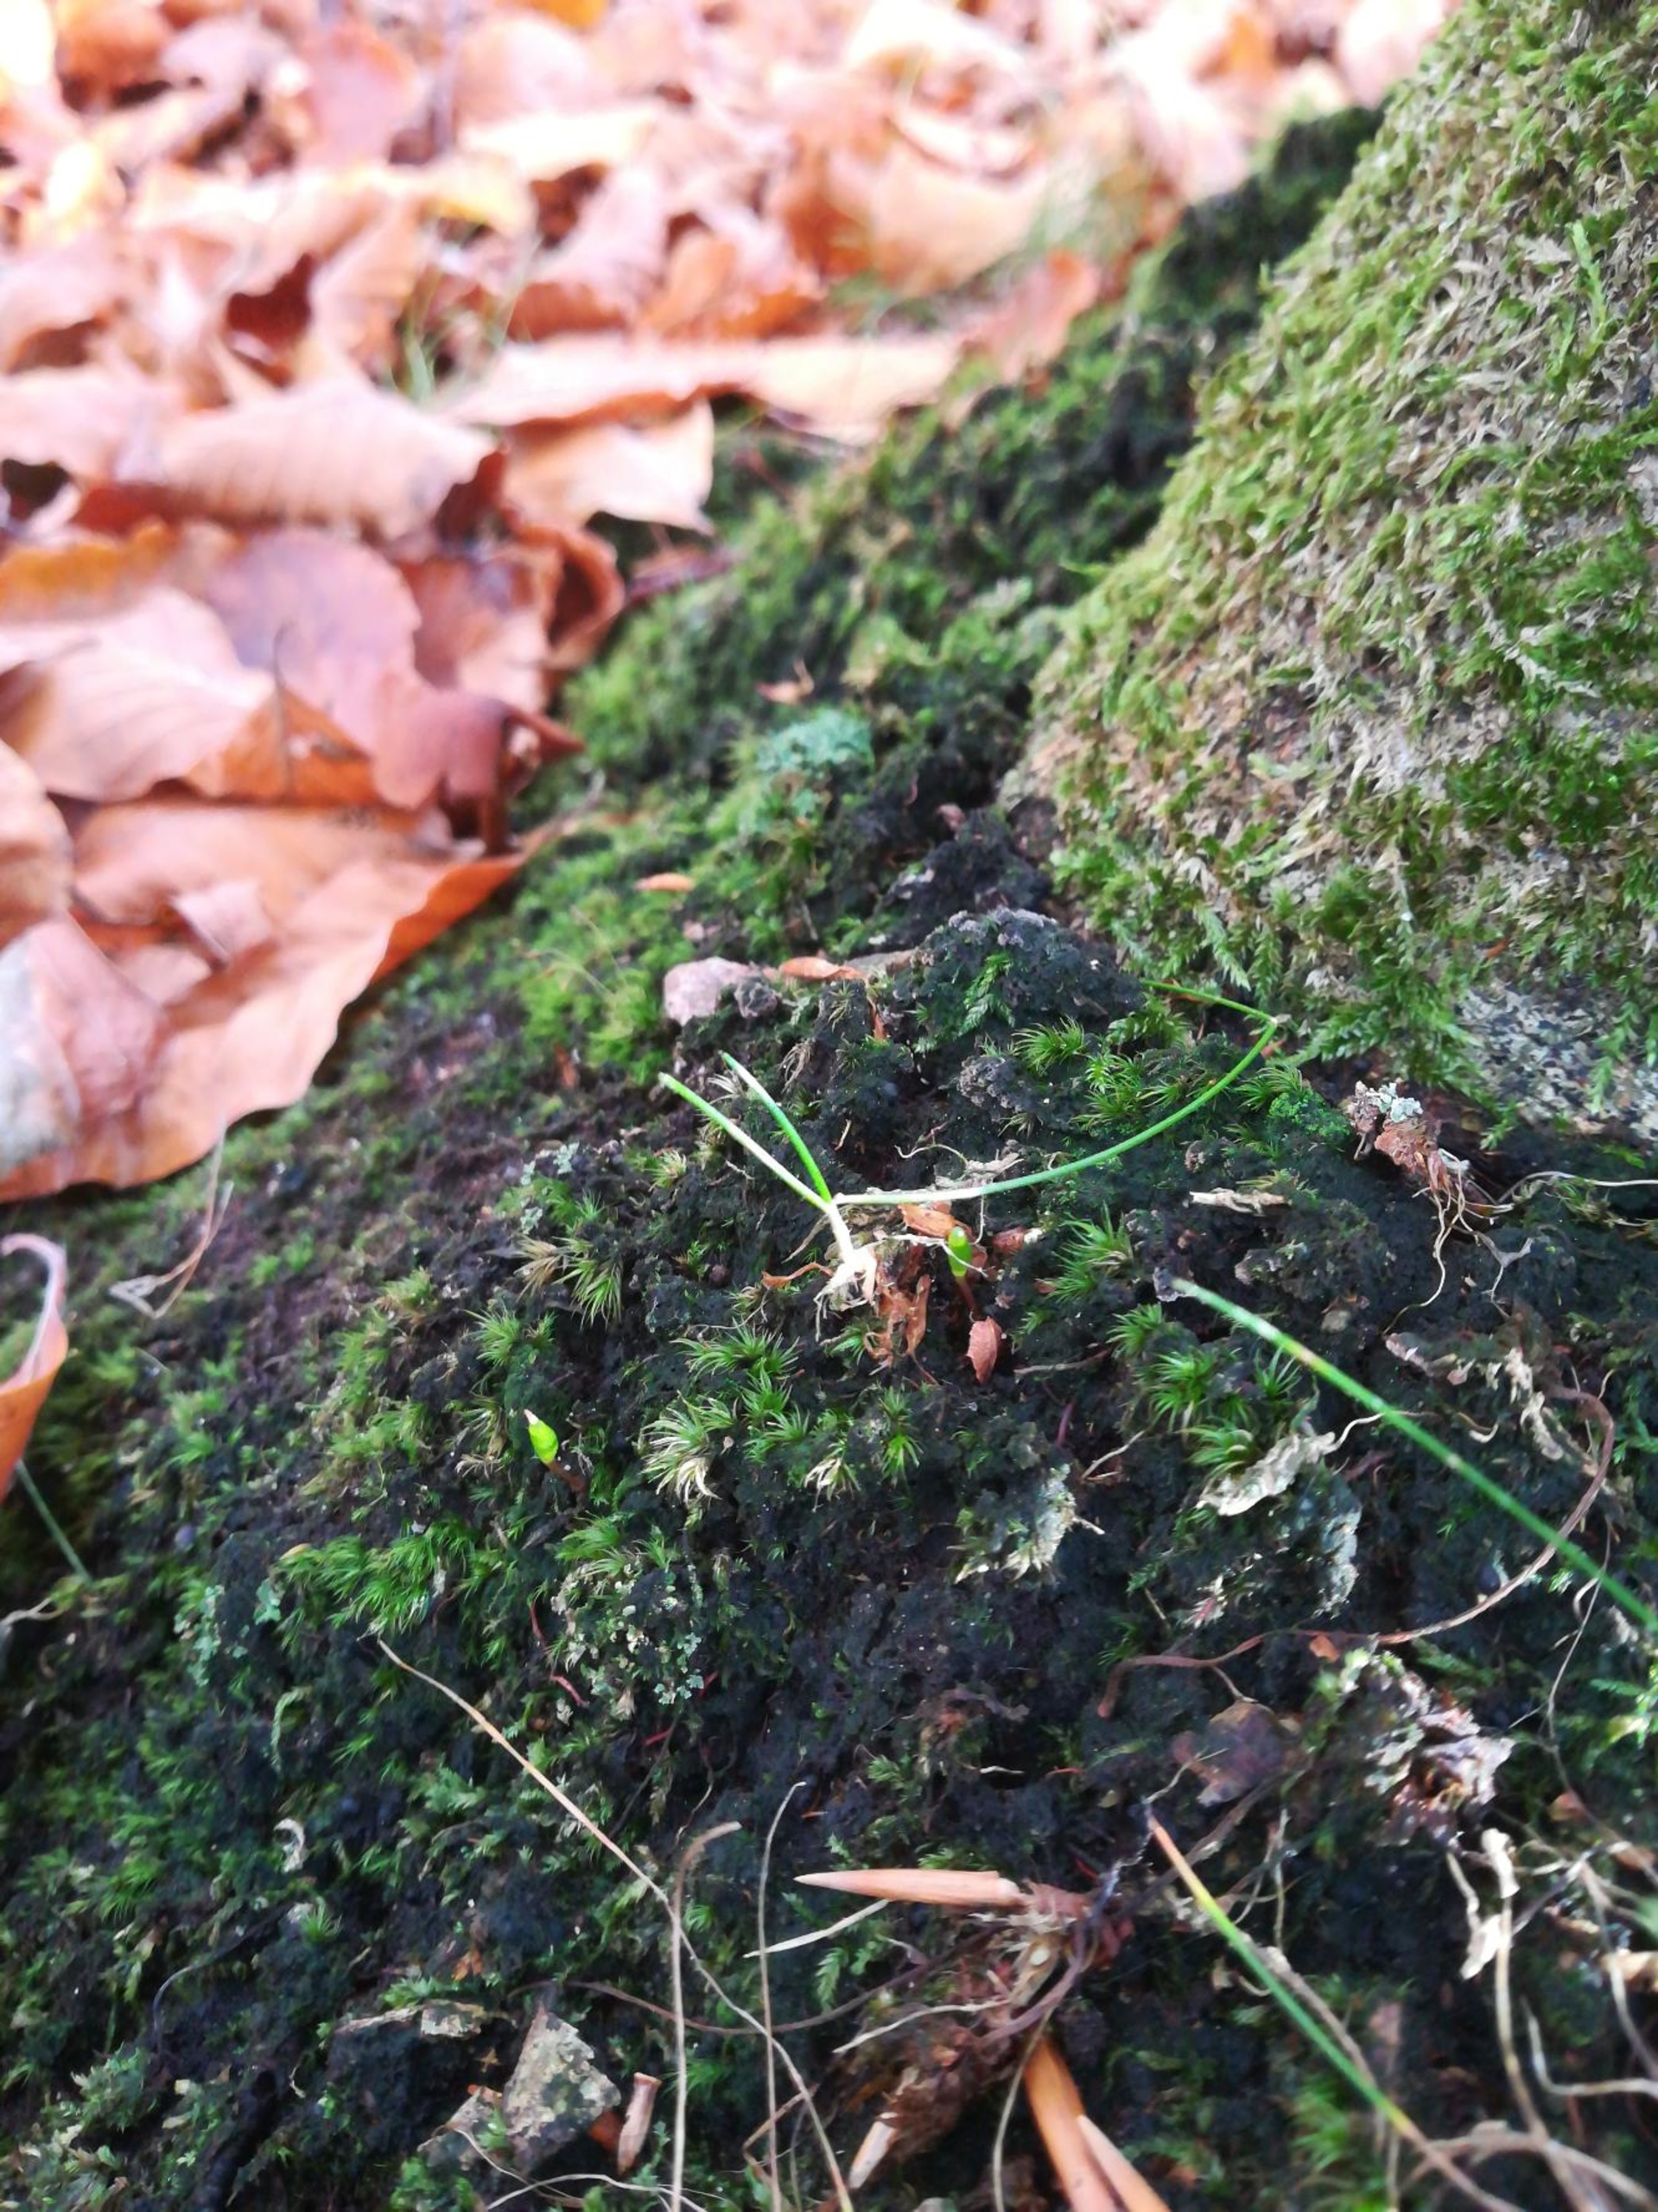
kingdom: Plantae
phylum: Bryophyta
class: Bryopsida
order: Buxbaumiales
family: Buxbaumiaceae
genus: Buxbaumia
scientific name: Buxbaumia viridis
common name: Grøn buxbaumia
